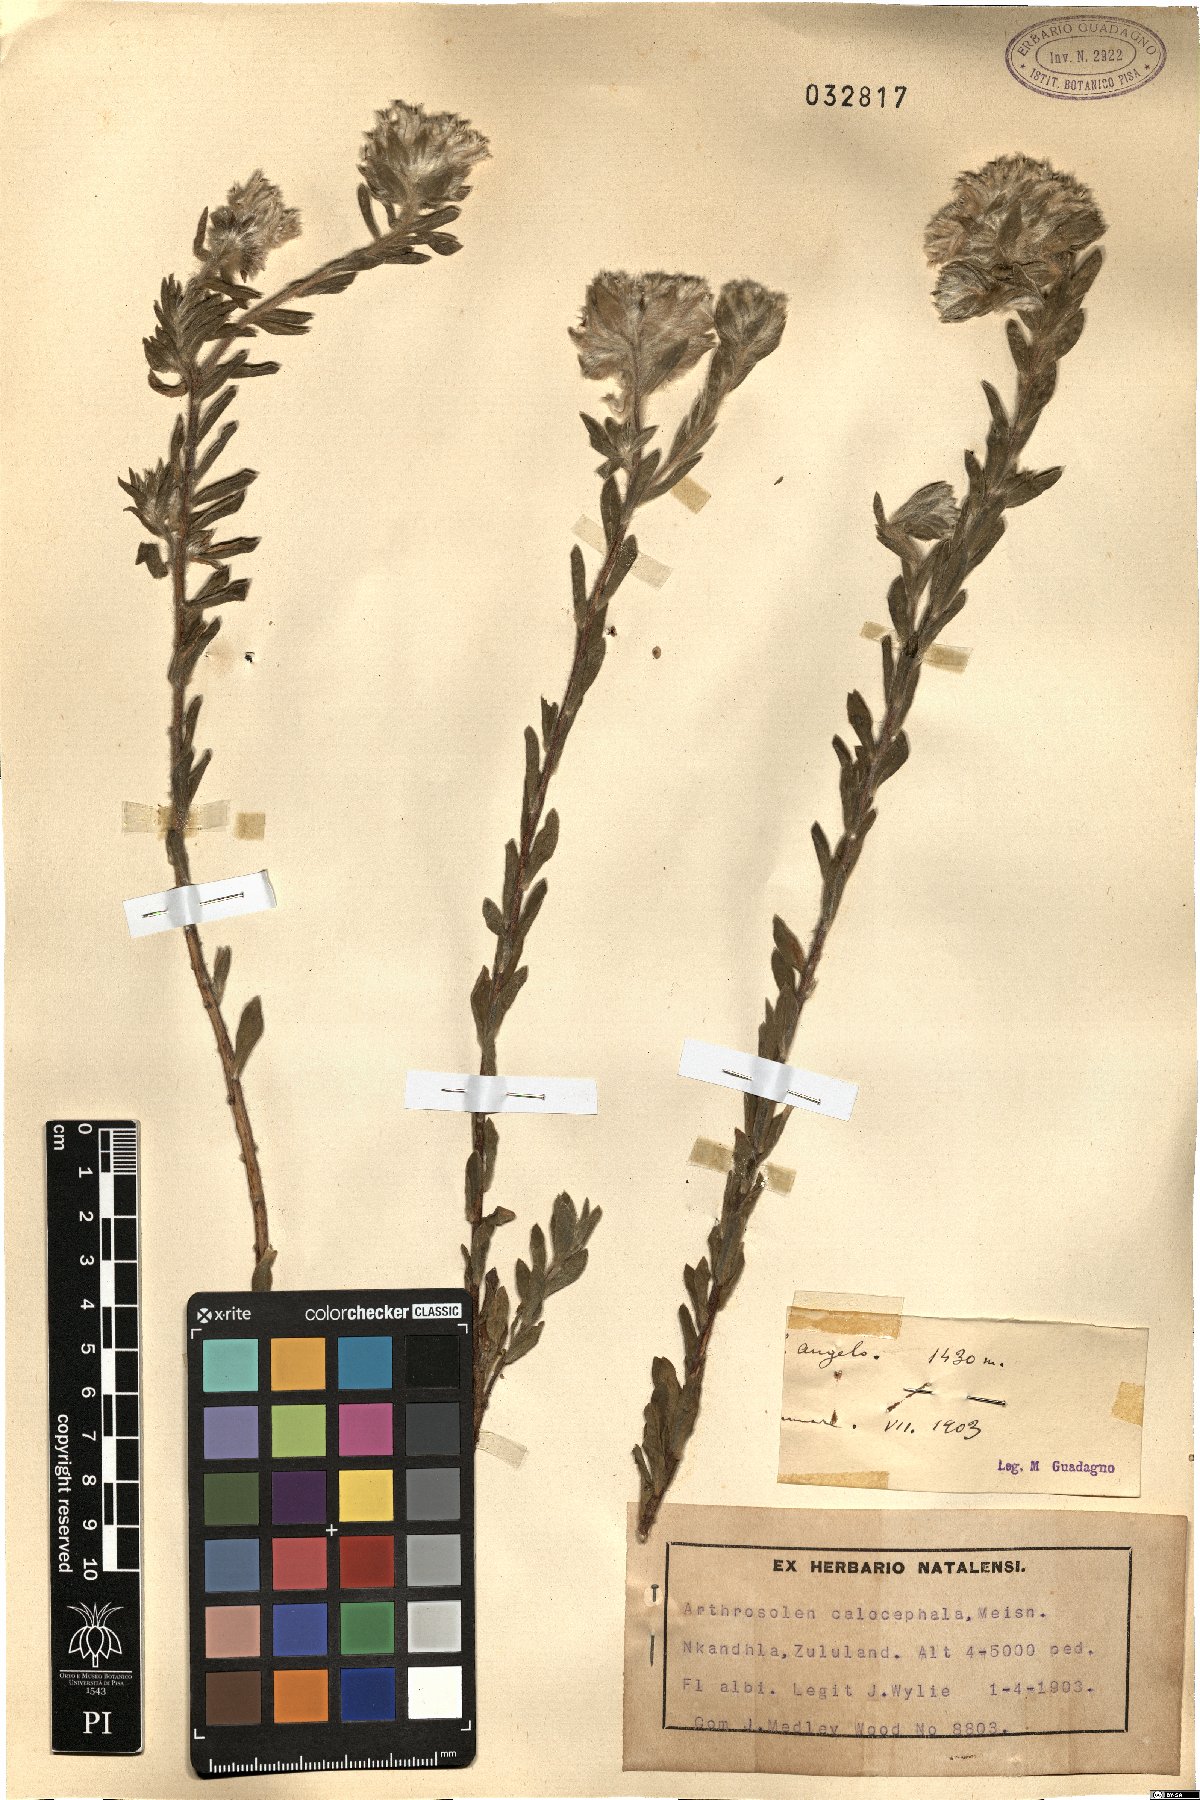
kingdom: Plantae
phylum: Tracheophyta
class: Magnoliopsida
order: Malvales
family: Thymelaeaceae
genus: Gnidia
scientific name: Gnidia calocephala
